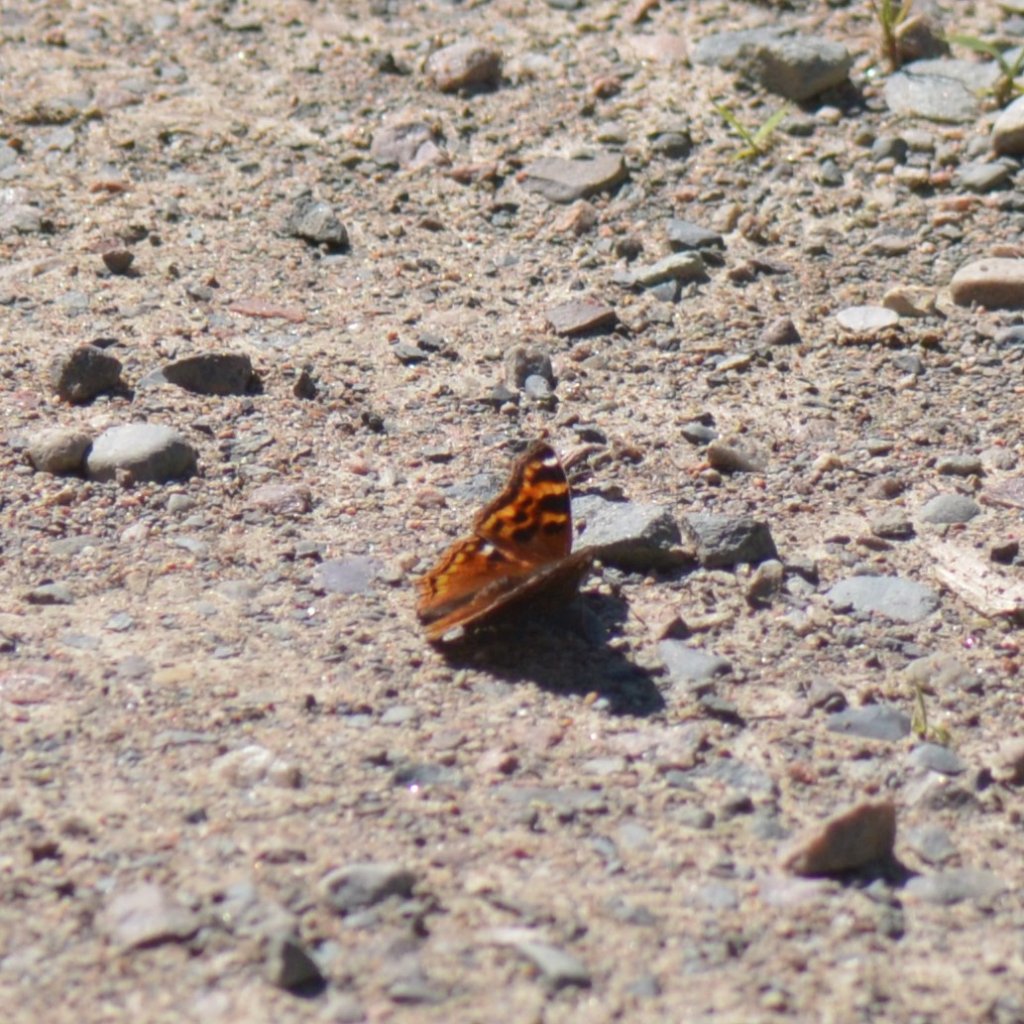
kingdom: Animalia
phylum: Arthropoda
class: Insecta
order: Lepidoptera
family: Nymphalidae
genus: Polygonia
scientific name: Polygonia vaualbum
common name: Compton Tortoiseshell
